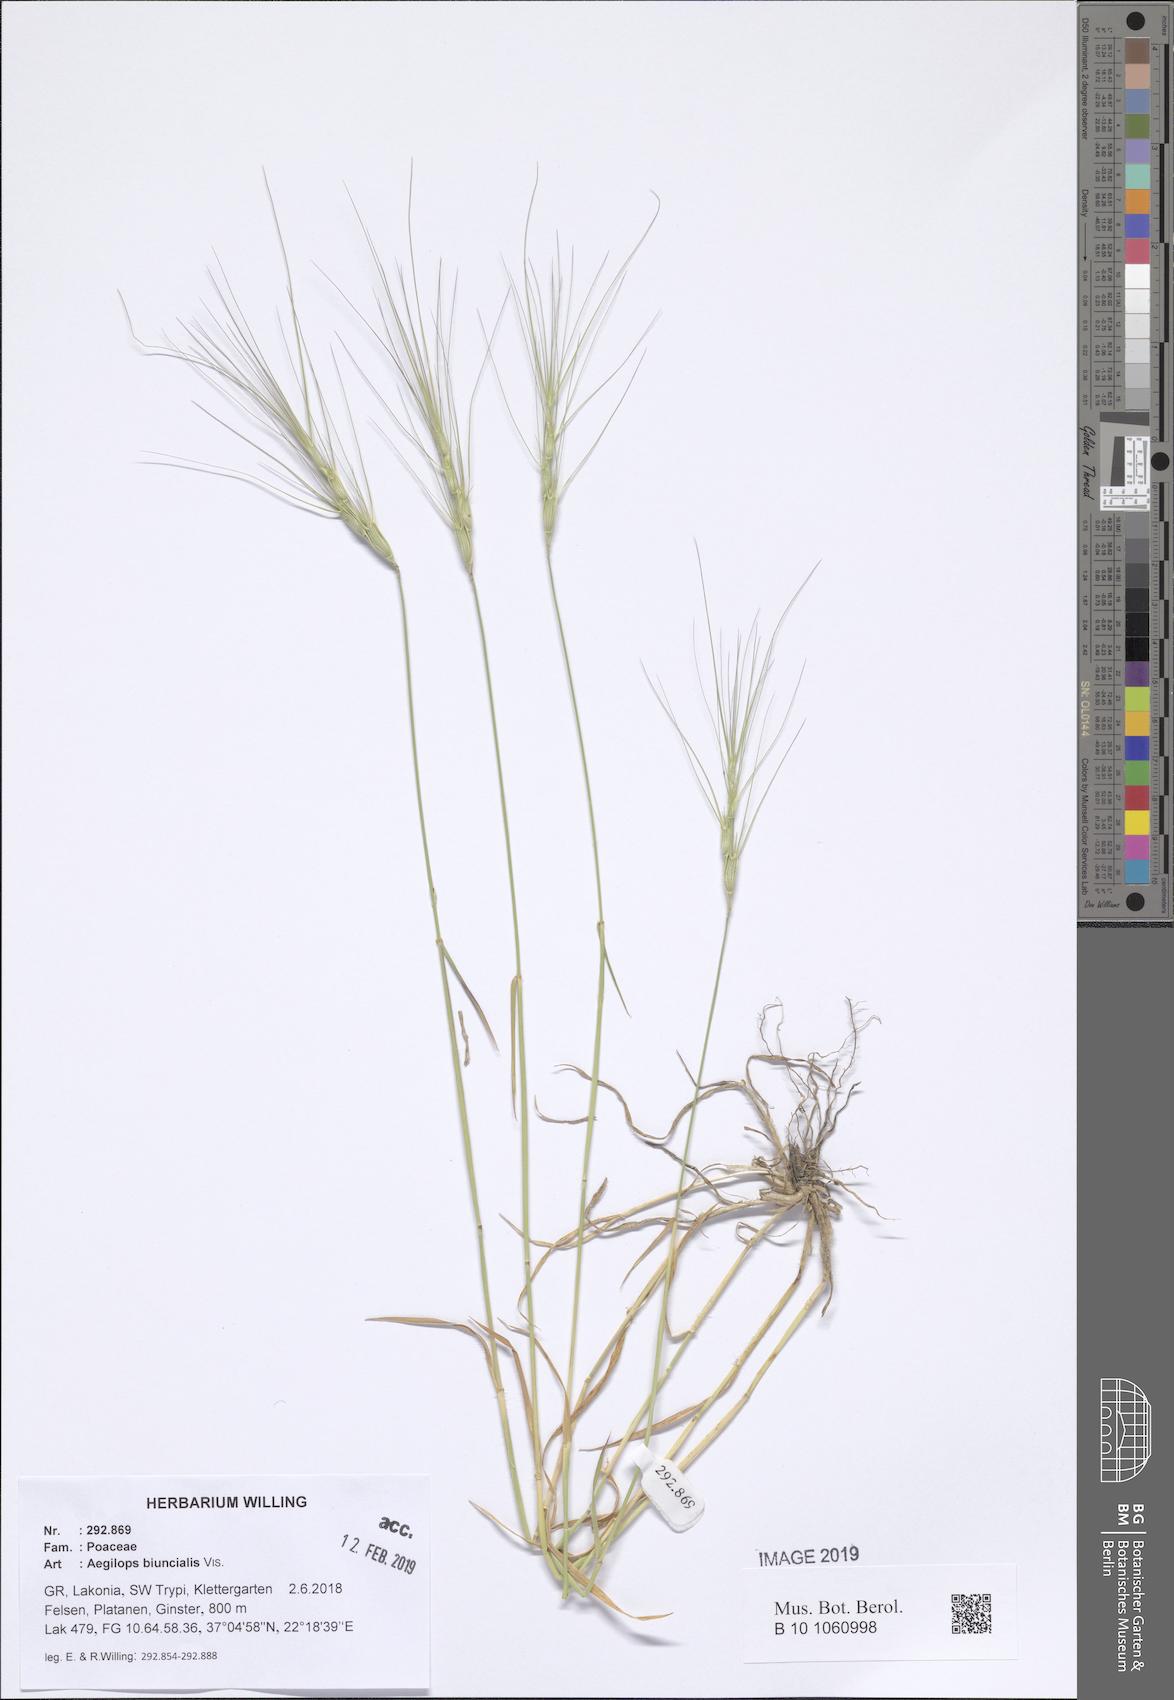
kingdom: Plantae
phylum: Tracheophyta
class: Liliopsida
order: Poales
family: Poaceae
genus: Aegilops
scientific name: Aegilops biuncialis
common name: Mediterranean aegilops
